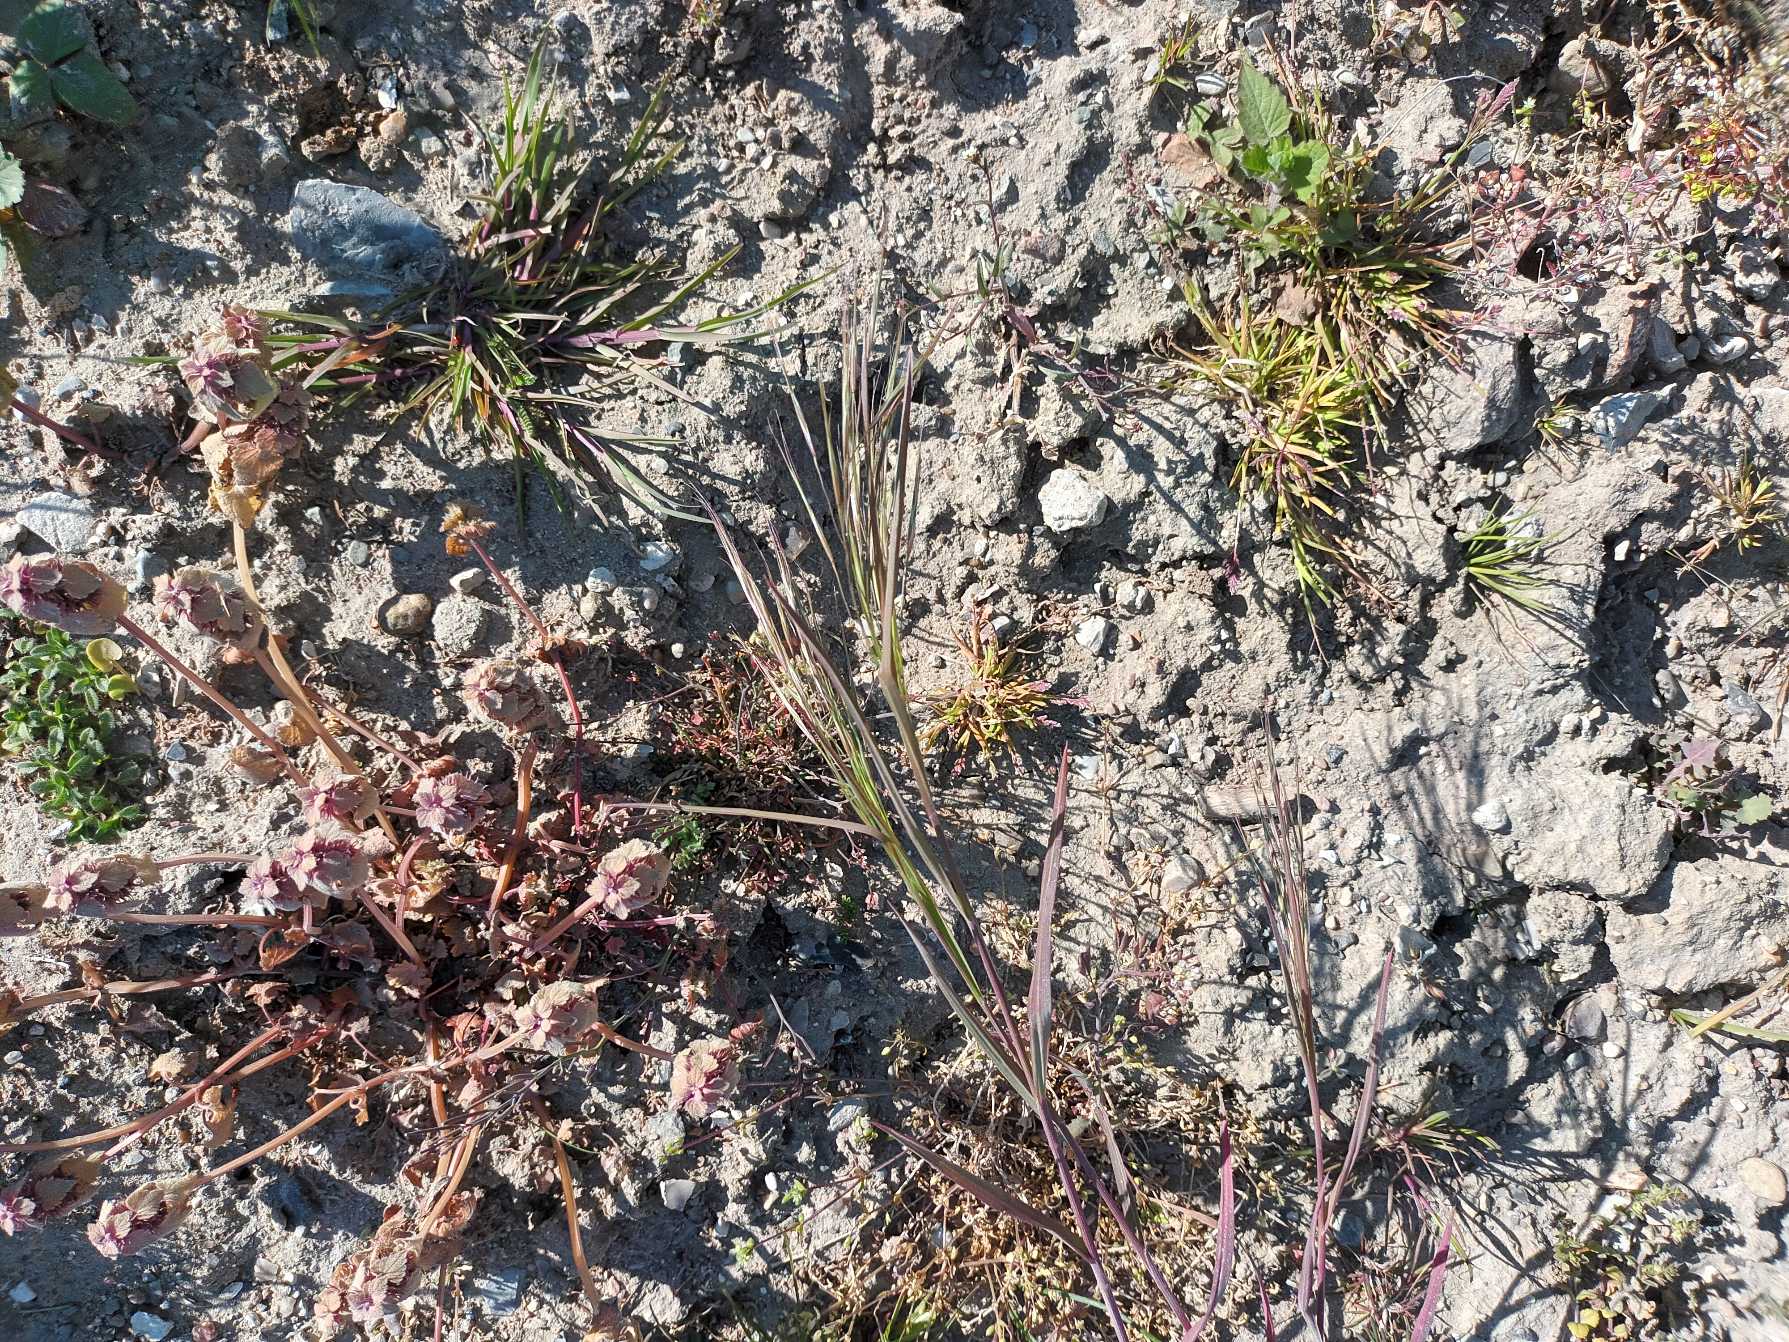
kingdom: Plantae
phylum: Tracheophyta
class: Liliopsida
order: Poales
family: Poaceae
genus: Bromus
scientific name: Bromus sterilis
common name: Gold hejre
